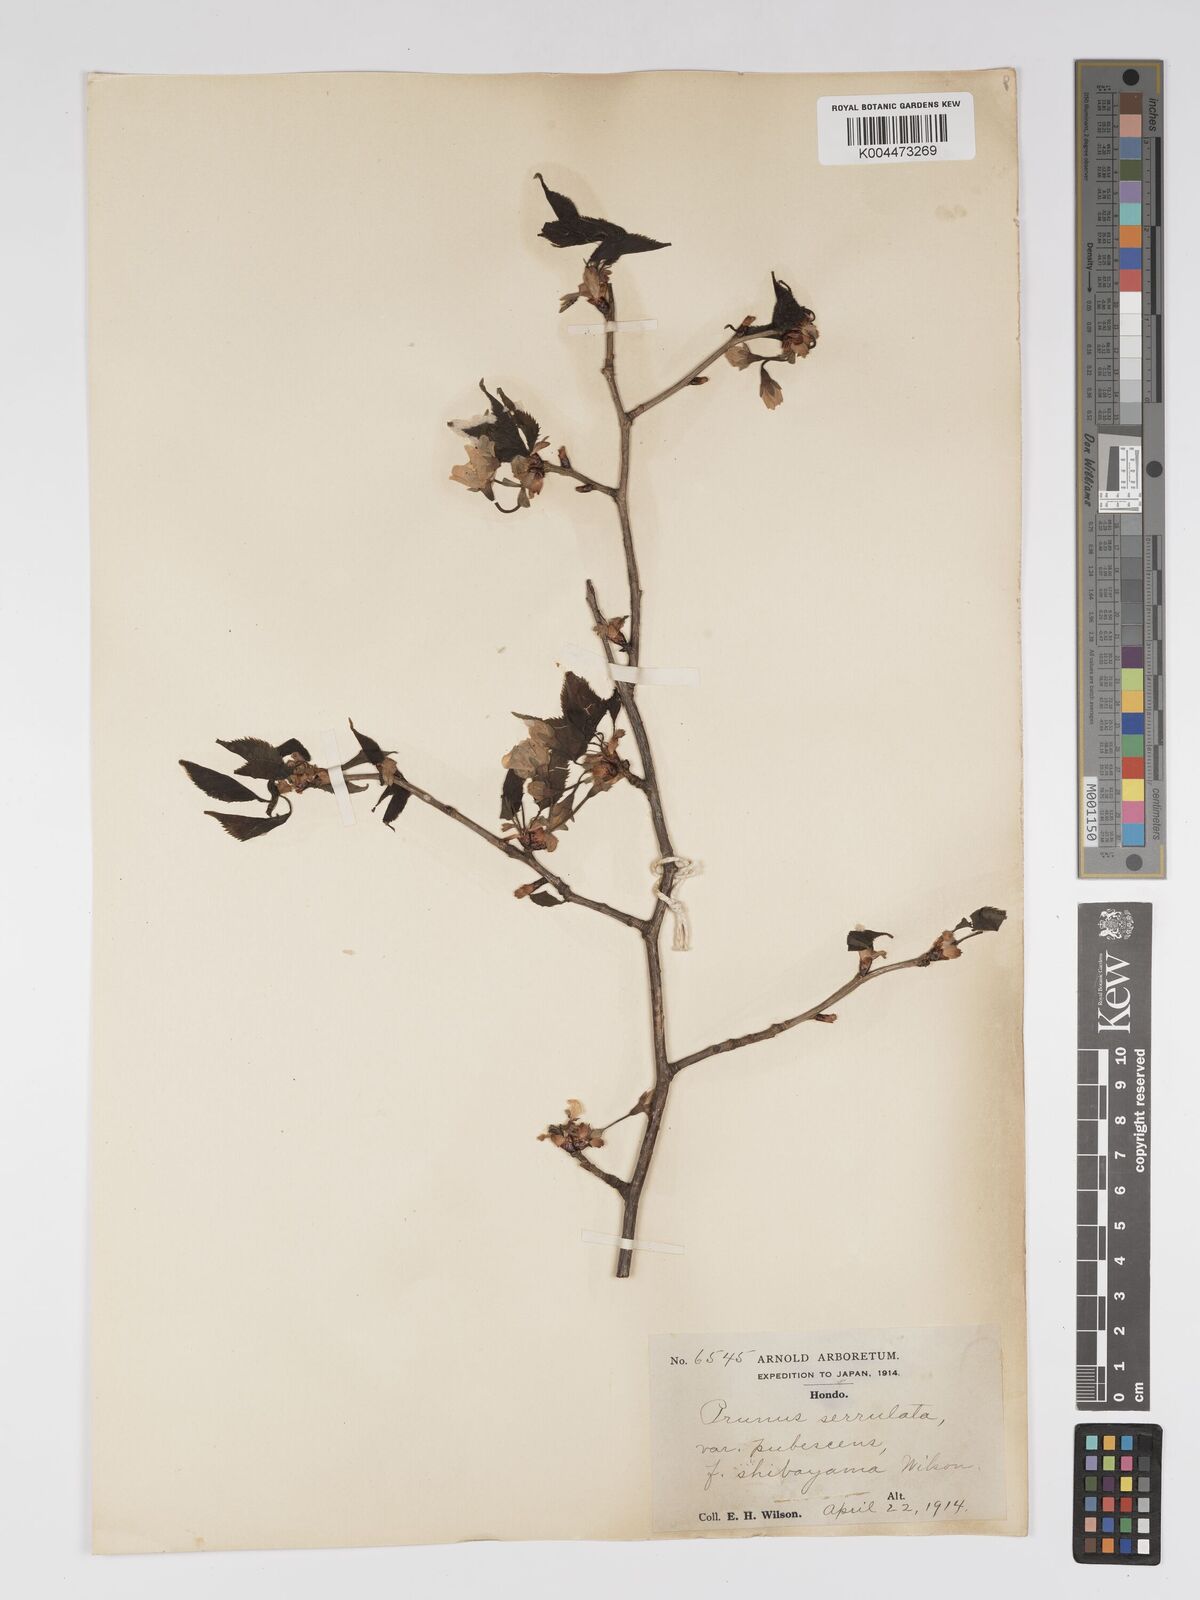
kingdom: Plantae
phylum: Tracheophyta
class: Magnoliopsida
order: Rosales
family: Rosaceae
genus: Prunus
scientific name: Prunus serrulata
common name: Japanese cherry
